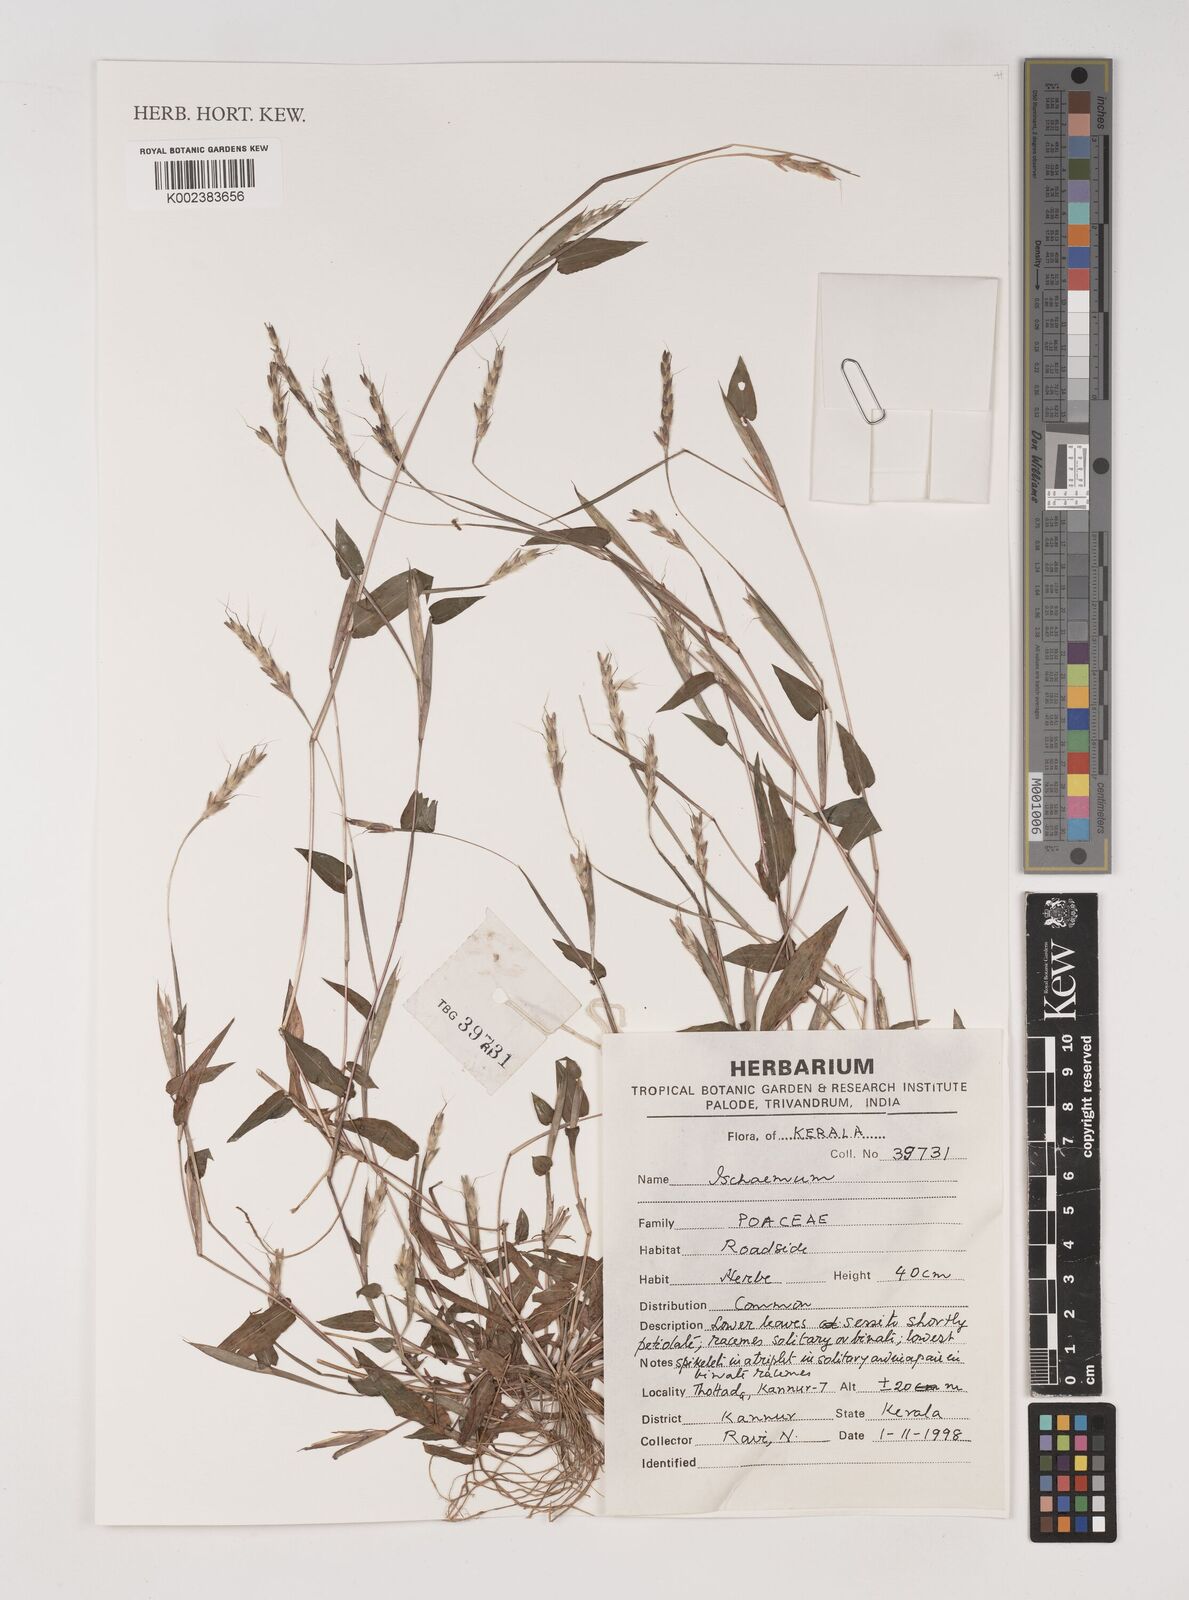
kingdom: Plantae
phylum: Tracheophyta
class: Liliopsida
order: Poales
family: Poaceae
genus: Ischaemum
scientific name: Ischaemum
